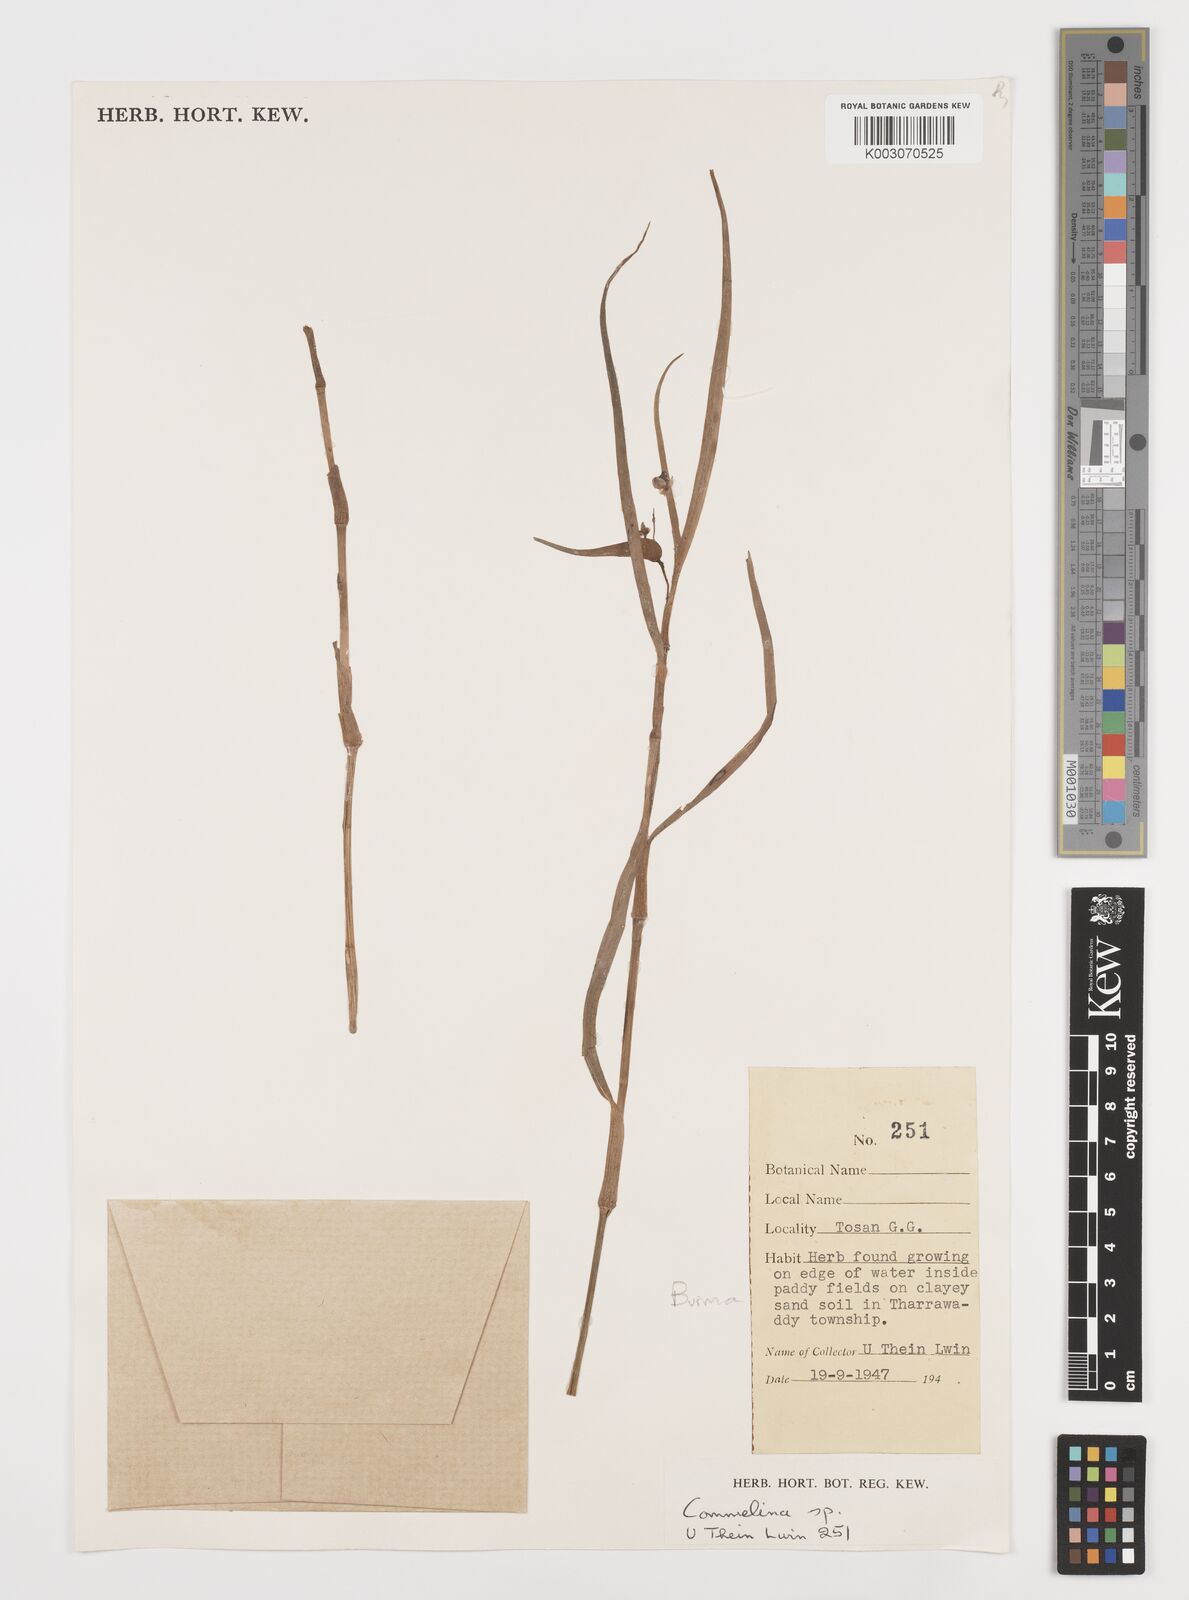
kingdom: Plantae
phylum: Tracheophyta
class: Liliopsida
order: Commelinales
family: Commelinaceae
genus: Commelina
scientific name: Commelina
